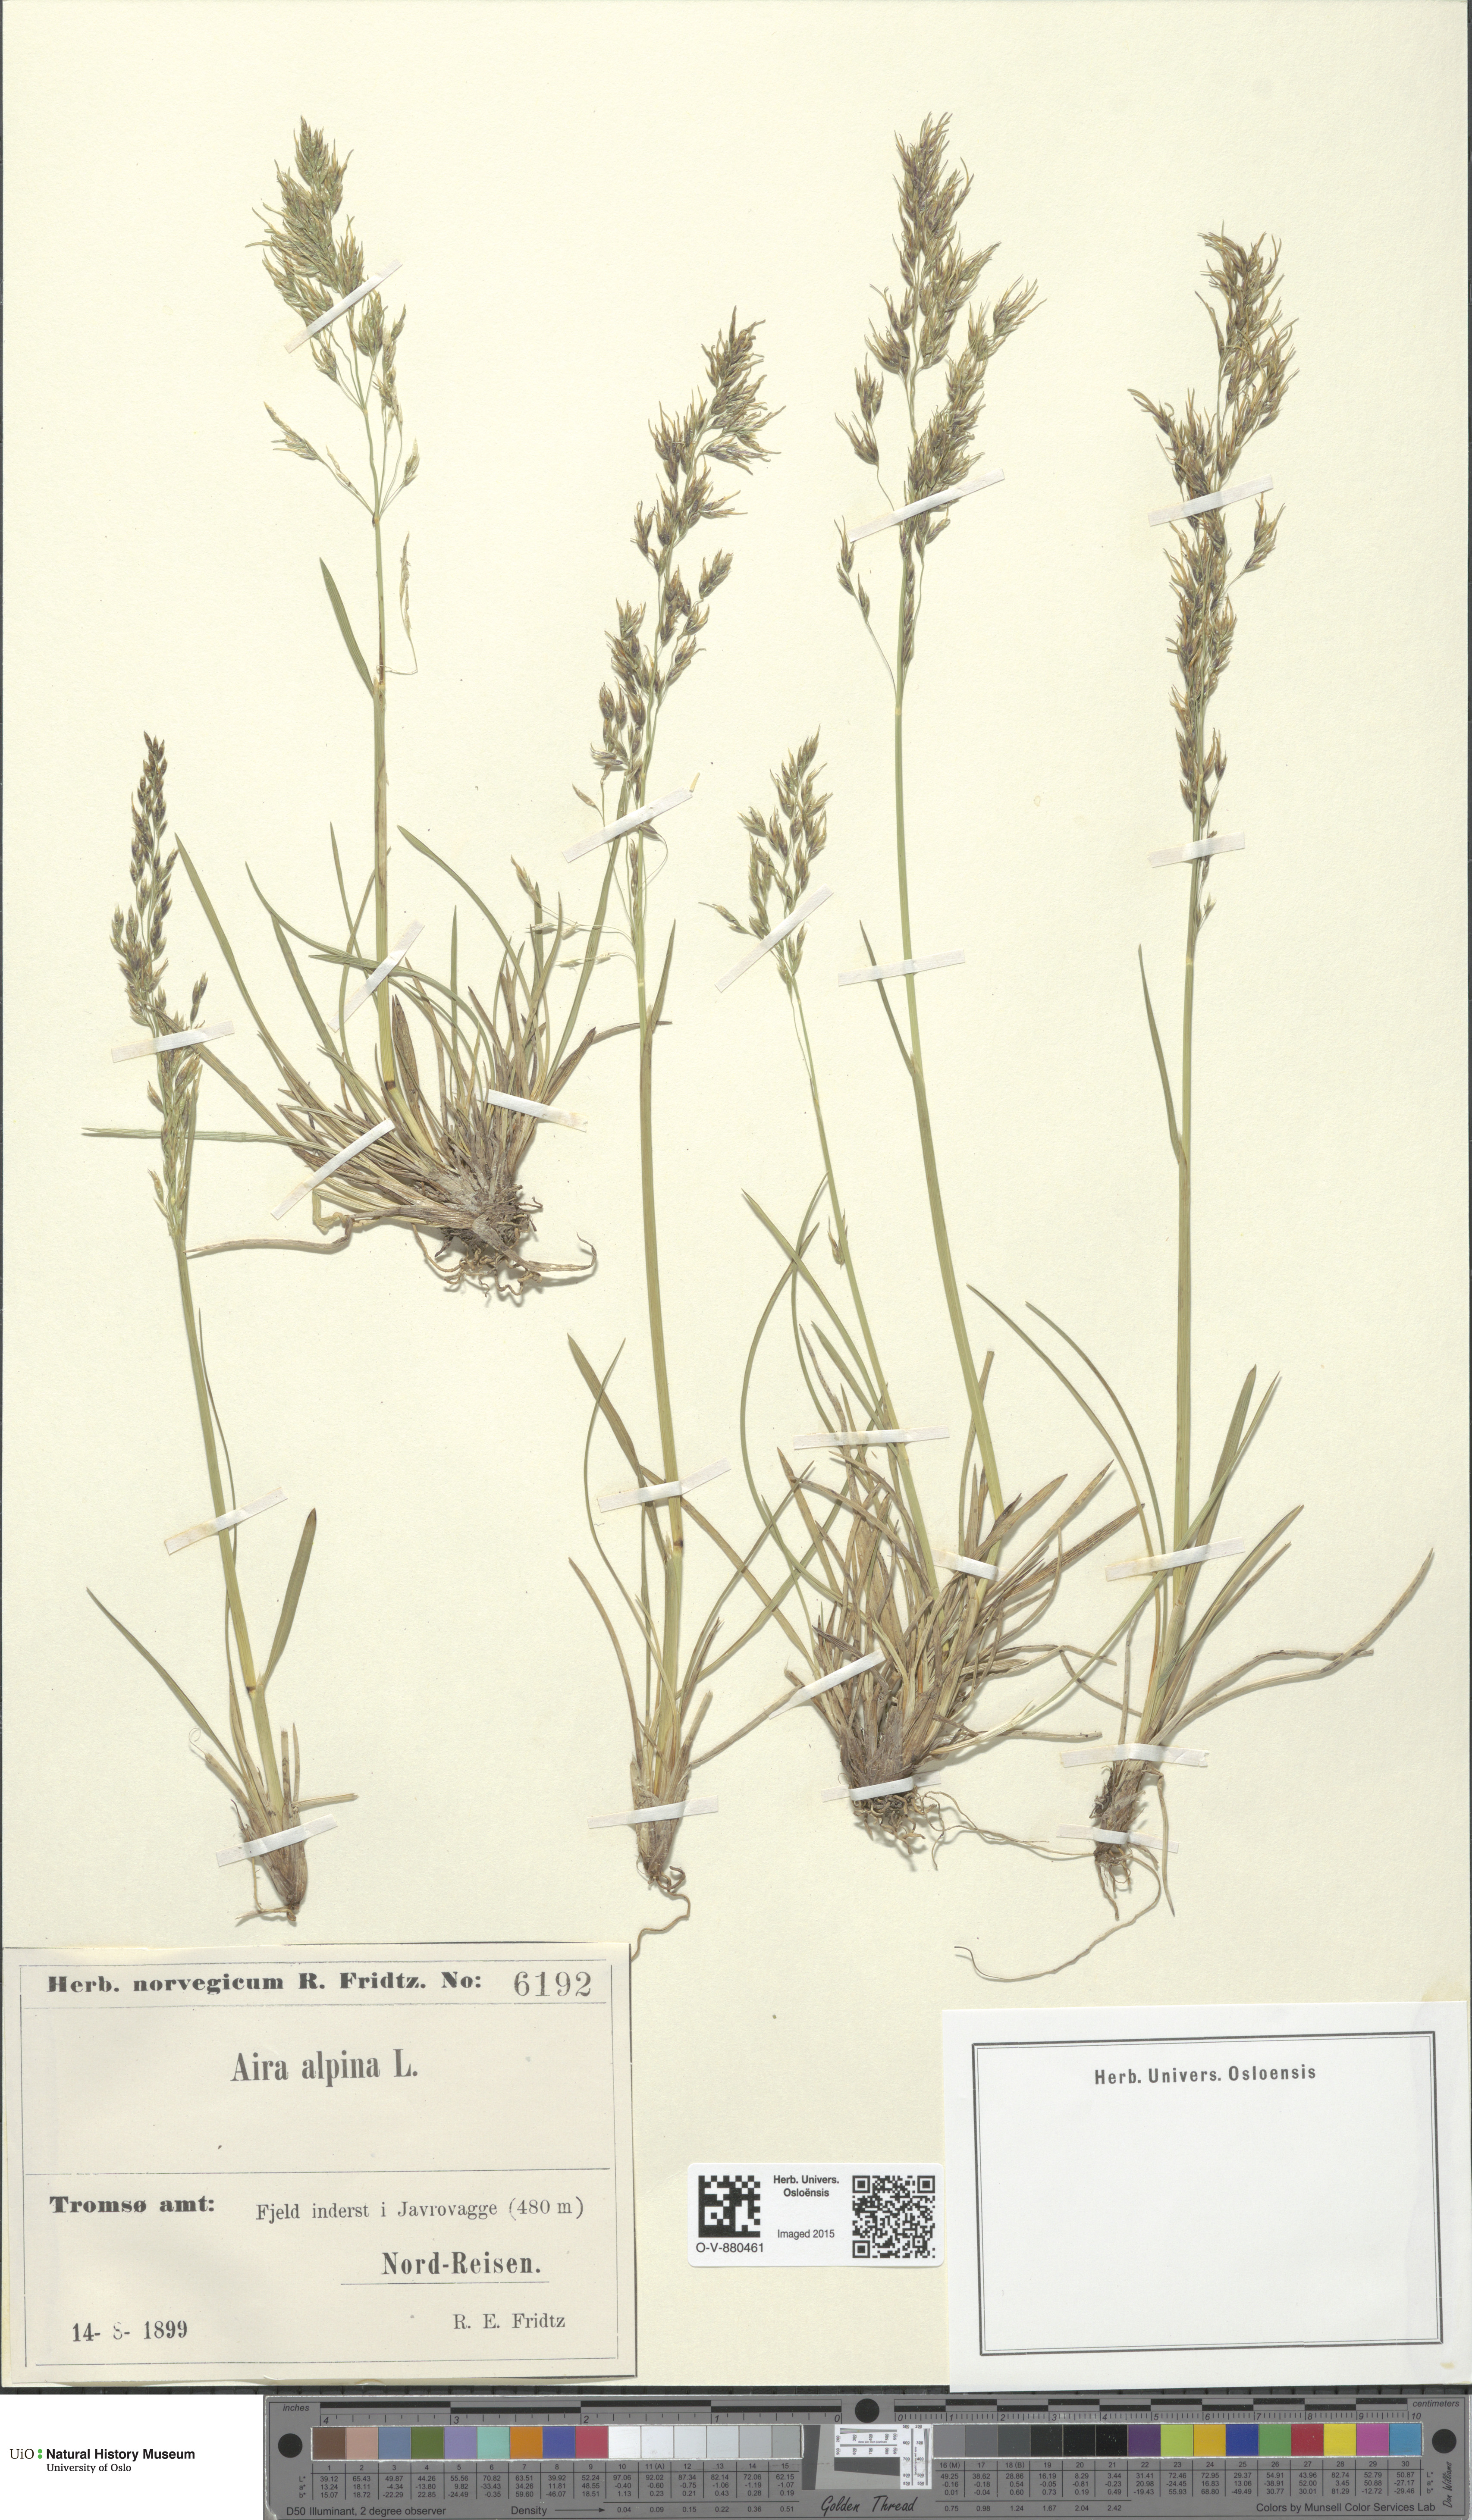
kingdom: Plantae
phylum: Tracheophyta
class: Liliopsida
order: Poales
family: Poaceae
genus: Deschampsia
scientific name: Deschampsia cespitosa
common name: Tufted hair-grass
